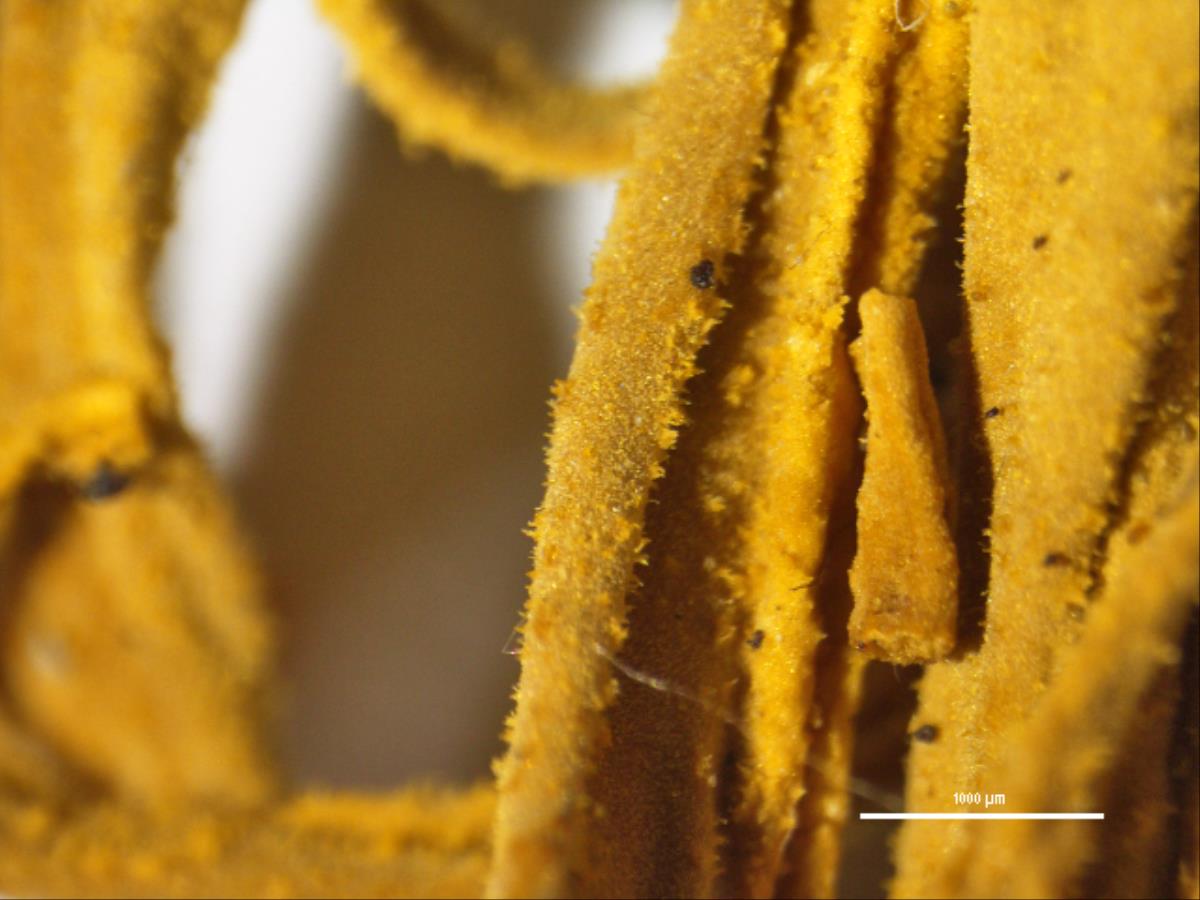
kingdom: Fungi
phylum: Basidiomycota
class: Agaricomycetes
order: Cantharellales
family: Hydnaceae
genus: Clavulina
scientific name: Clavulina septocystidiata
